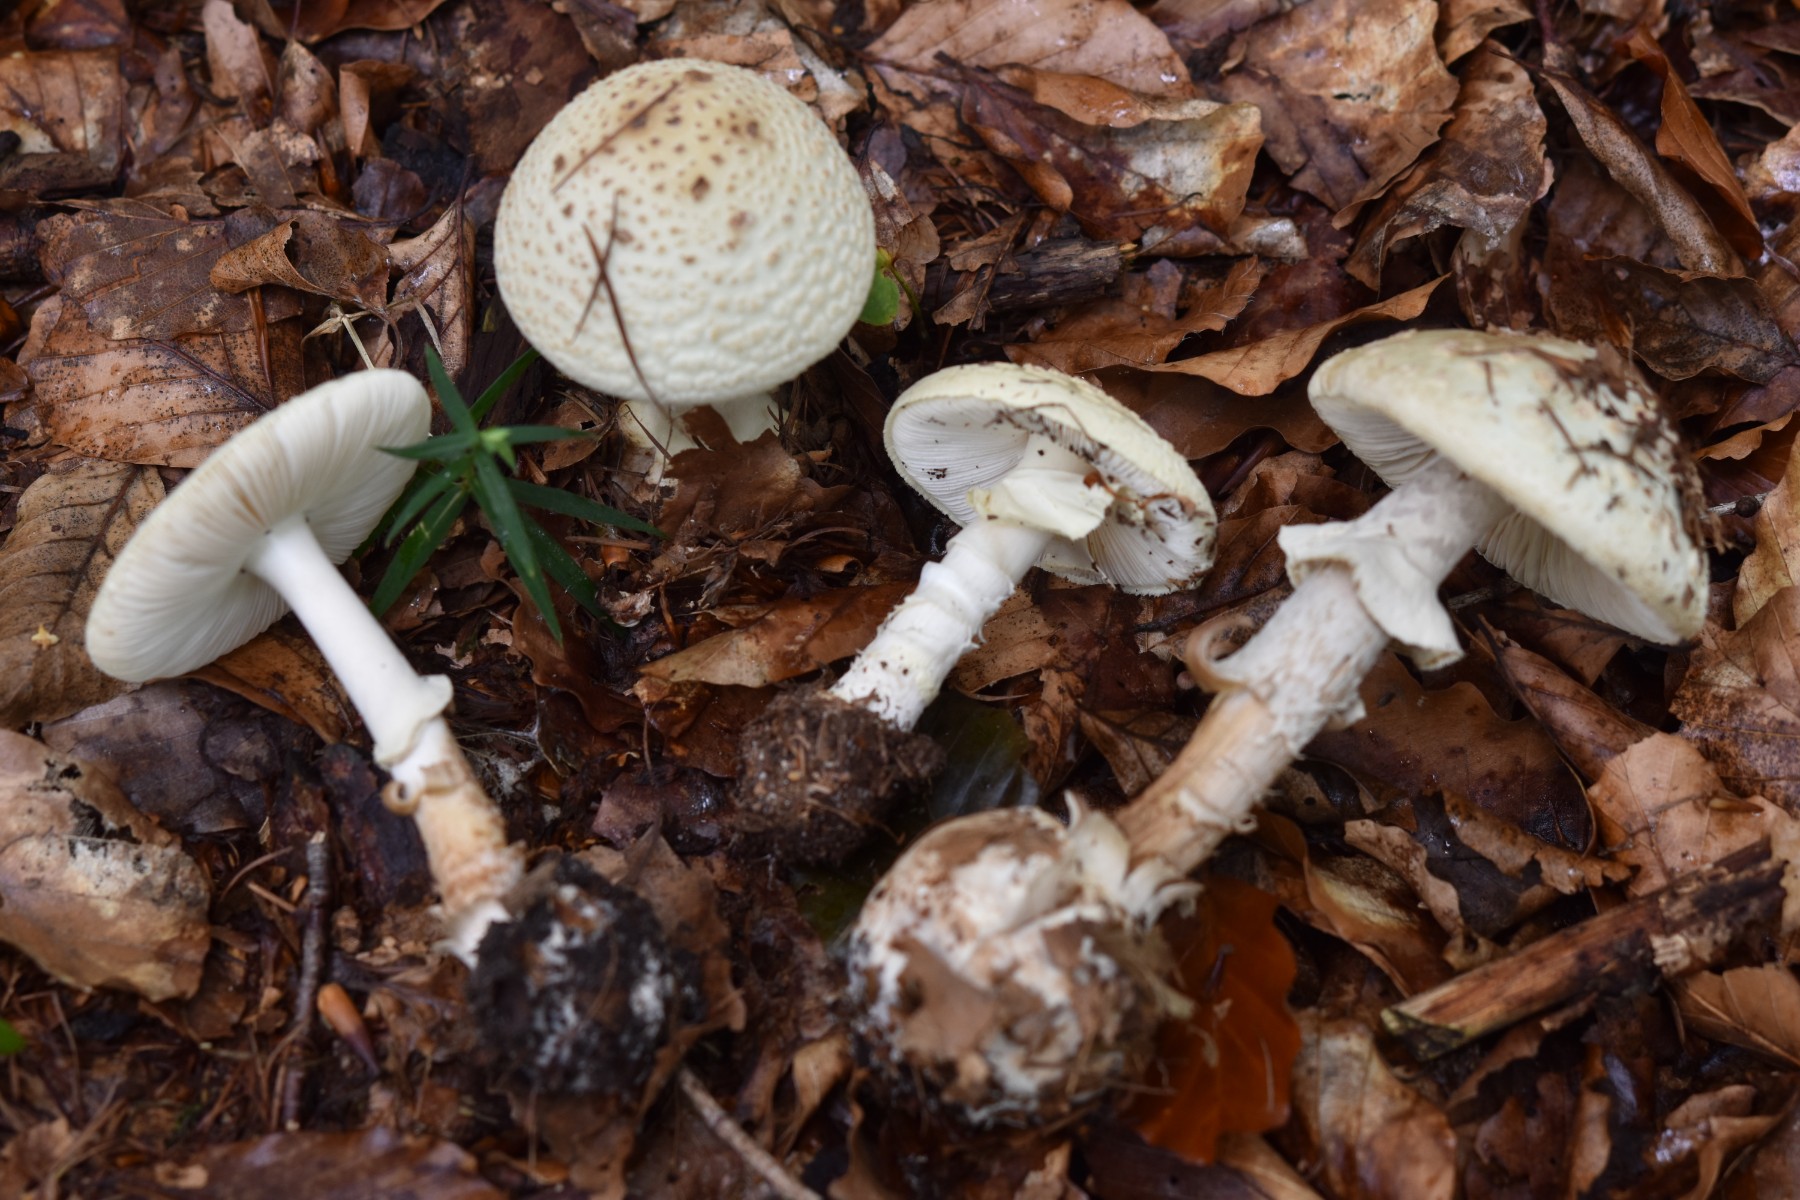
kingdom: Fungi
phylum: Basidiomycota
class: Agaricomycetes
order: Agaricales
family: Amanitaceae
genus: Amanita
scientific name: Amanita citrina
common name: kugleknoldet fluesvamp
